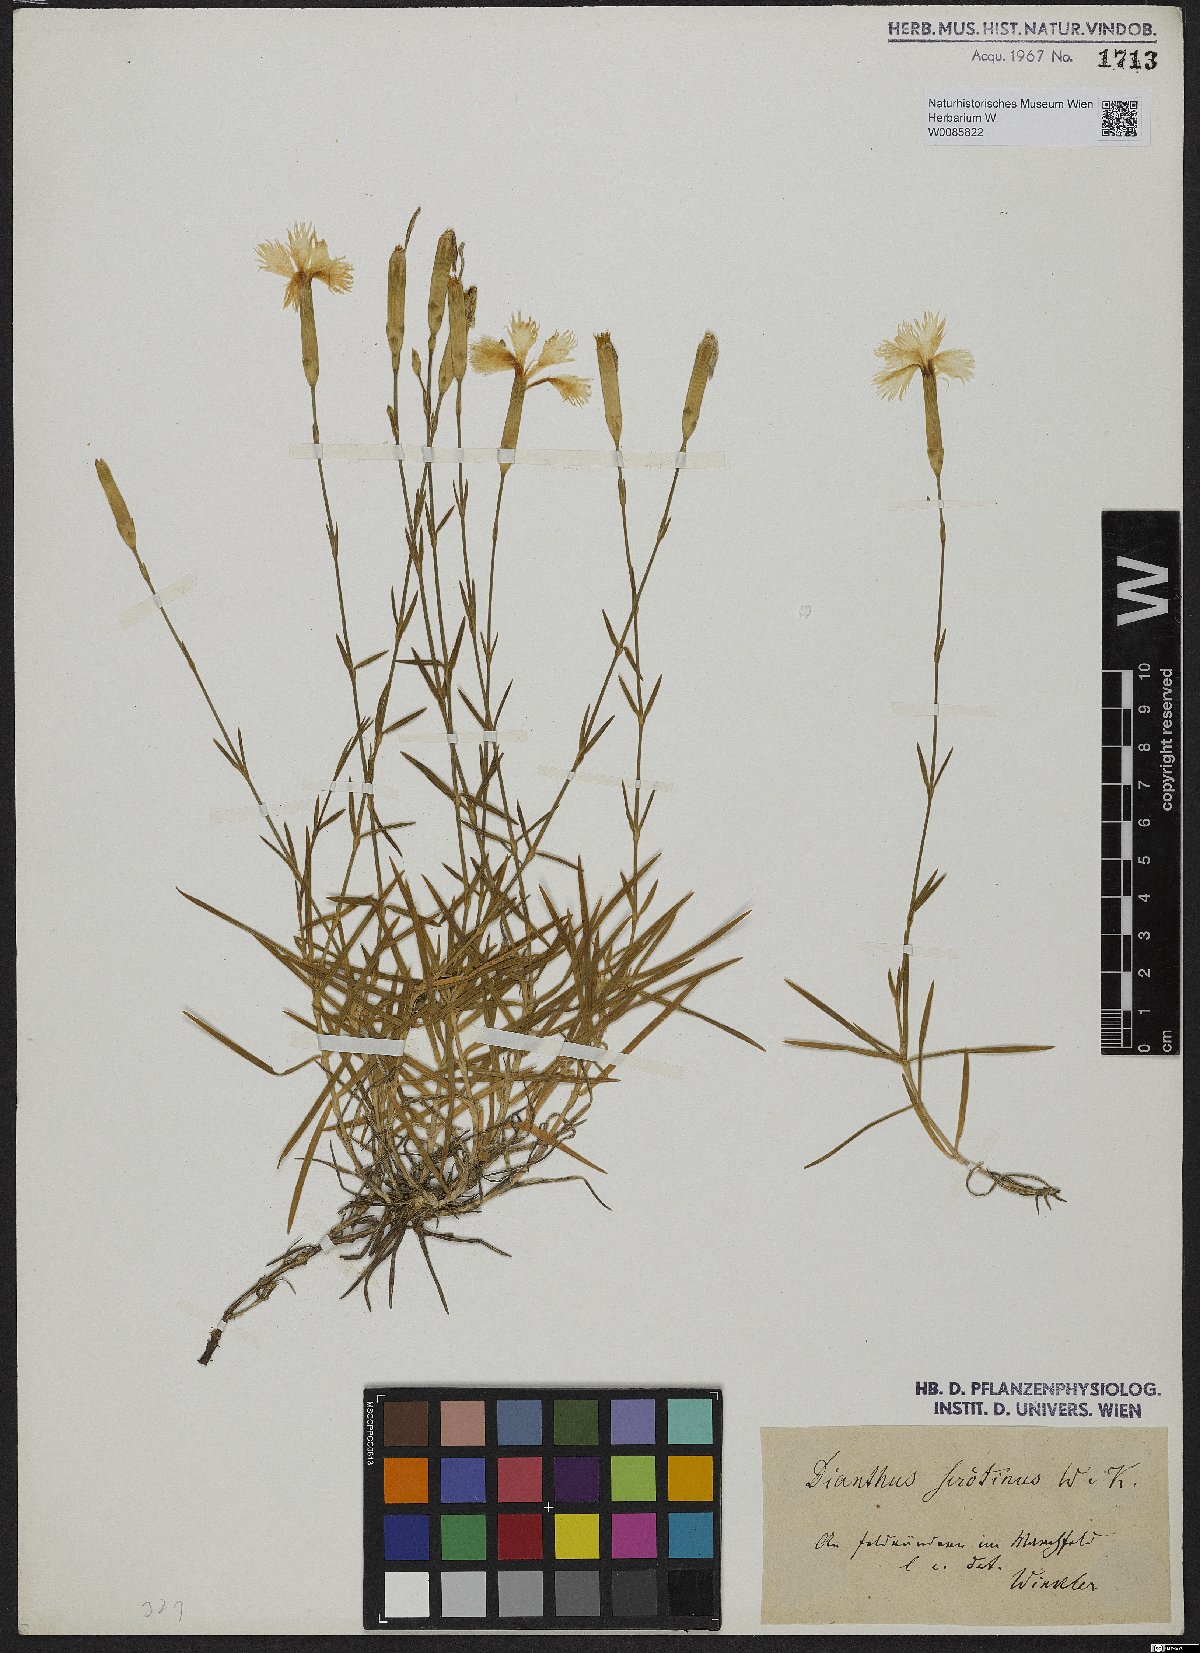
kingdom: Plantae
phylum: Tracheophyta
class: Magnoliopsida
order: Caryophyllales
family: Caryophyllaceae
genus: Dianthus
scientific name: Dianthus serotinus
